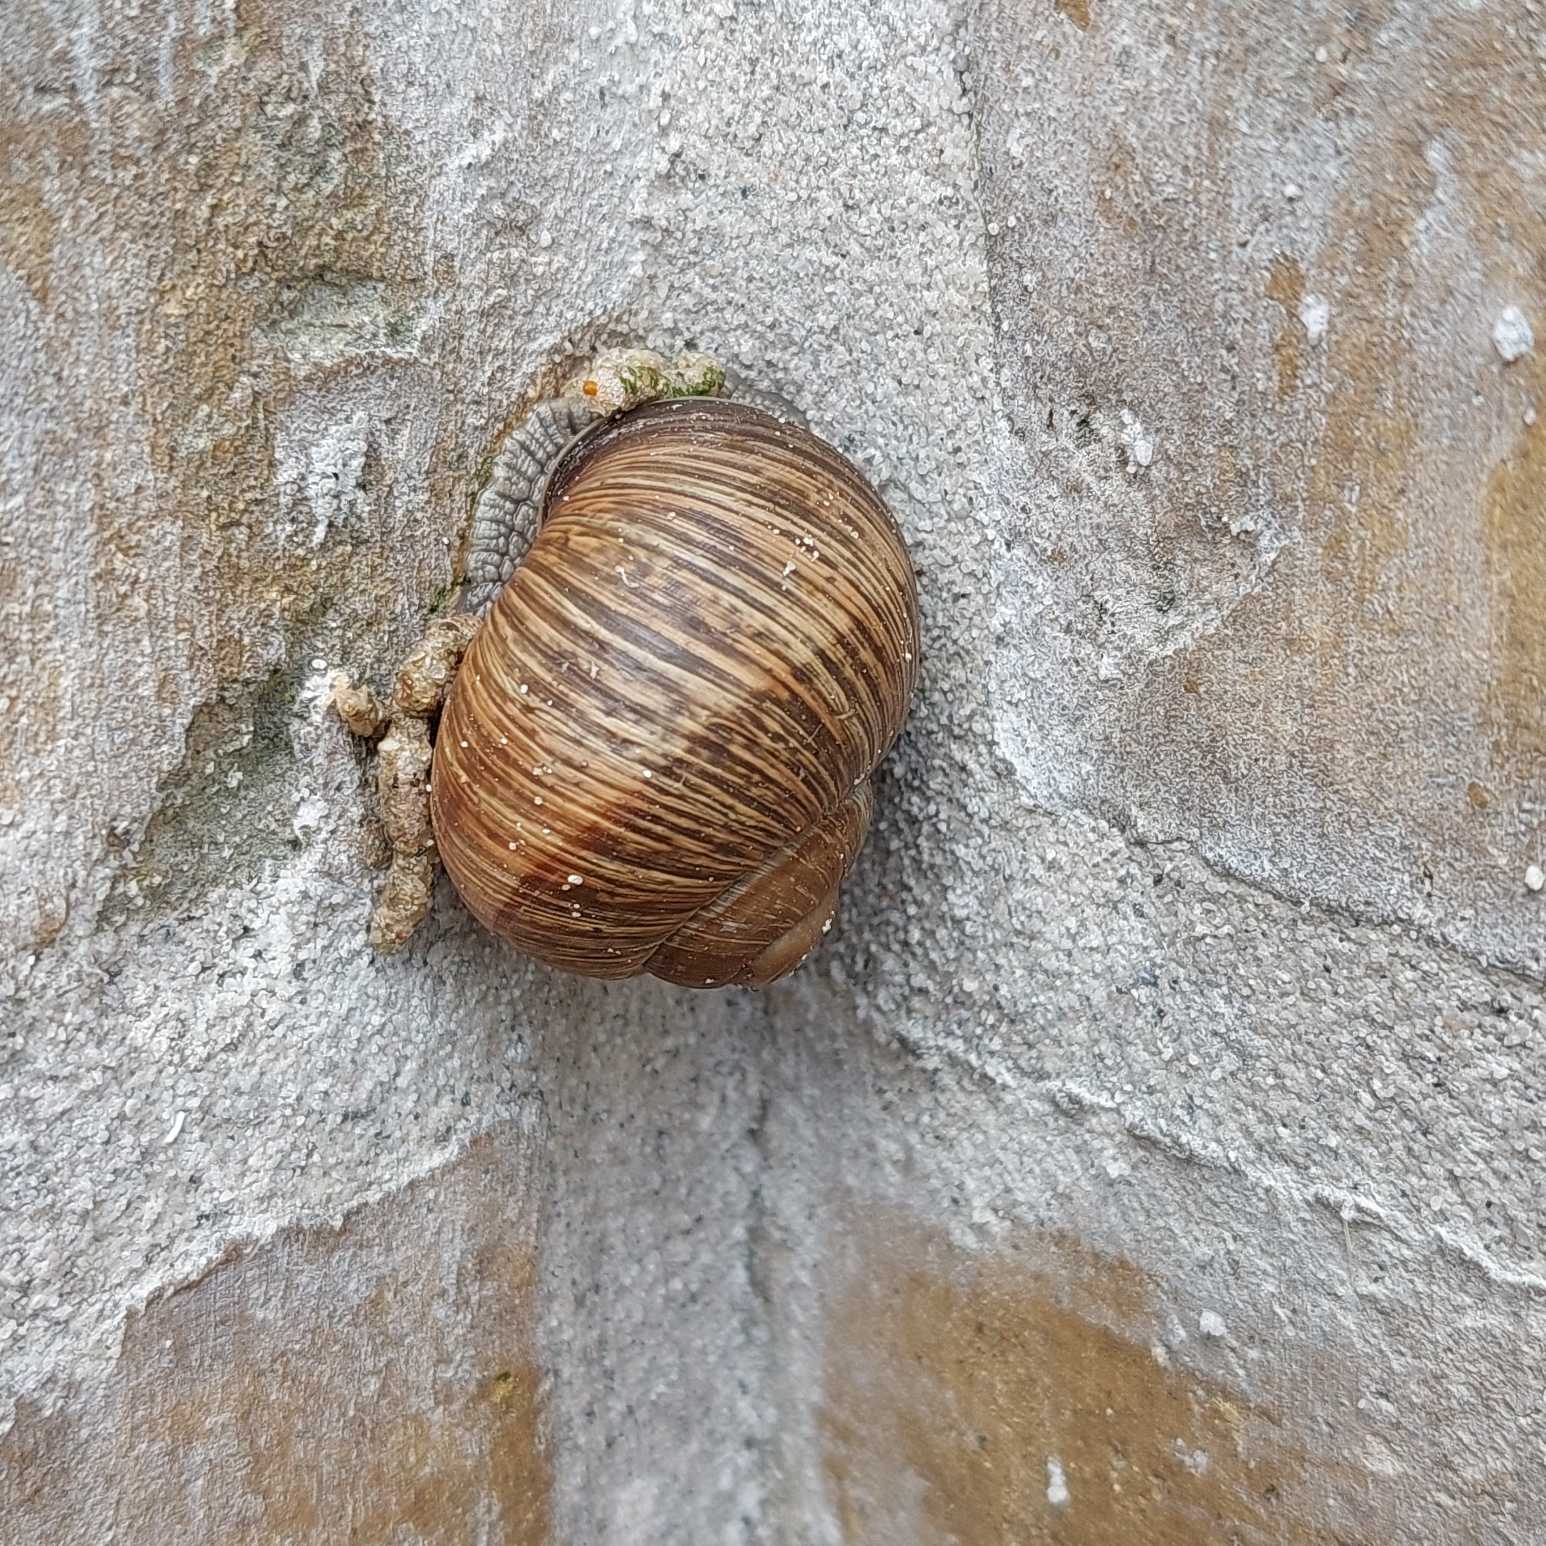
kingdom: Animalia
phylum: Mollusca
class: Gastropoda
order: Stylommatophora
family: Helicidae
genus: Helix
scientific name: Helix pomatia
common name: Vinbjergsnegl
